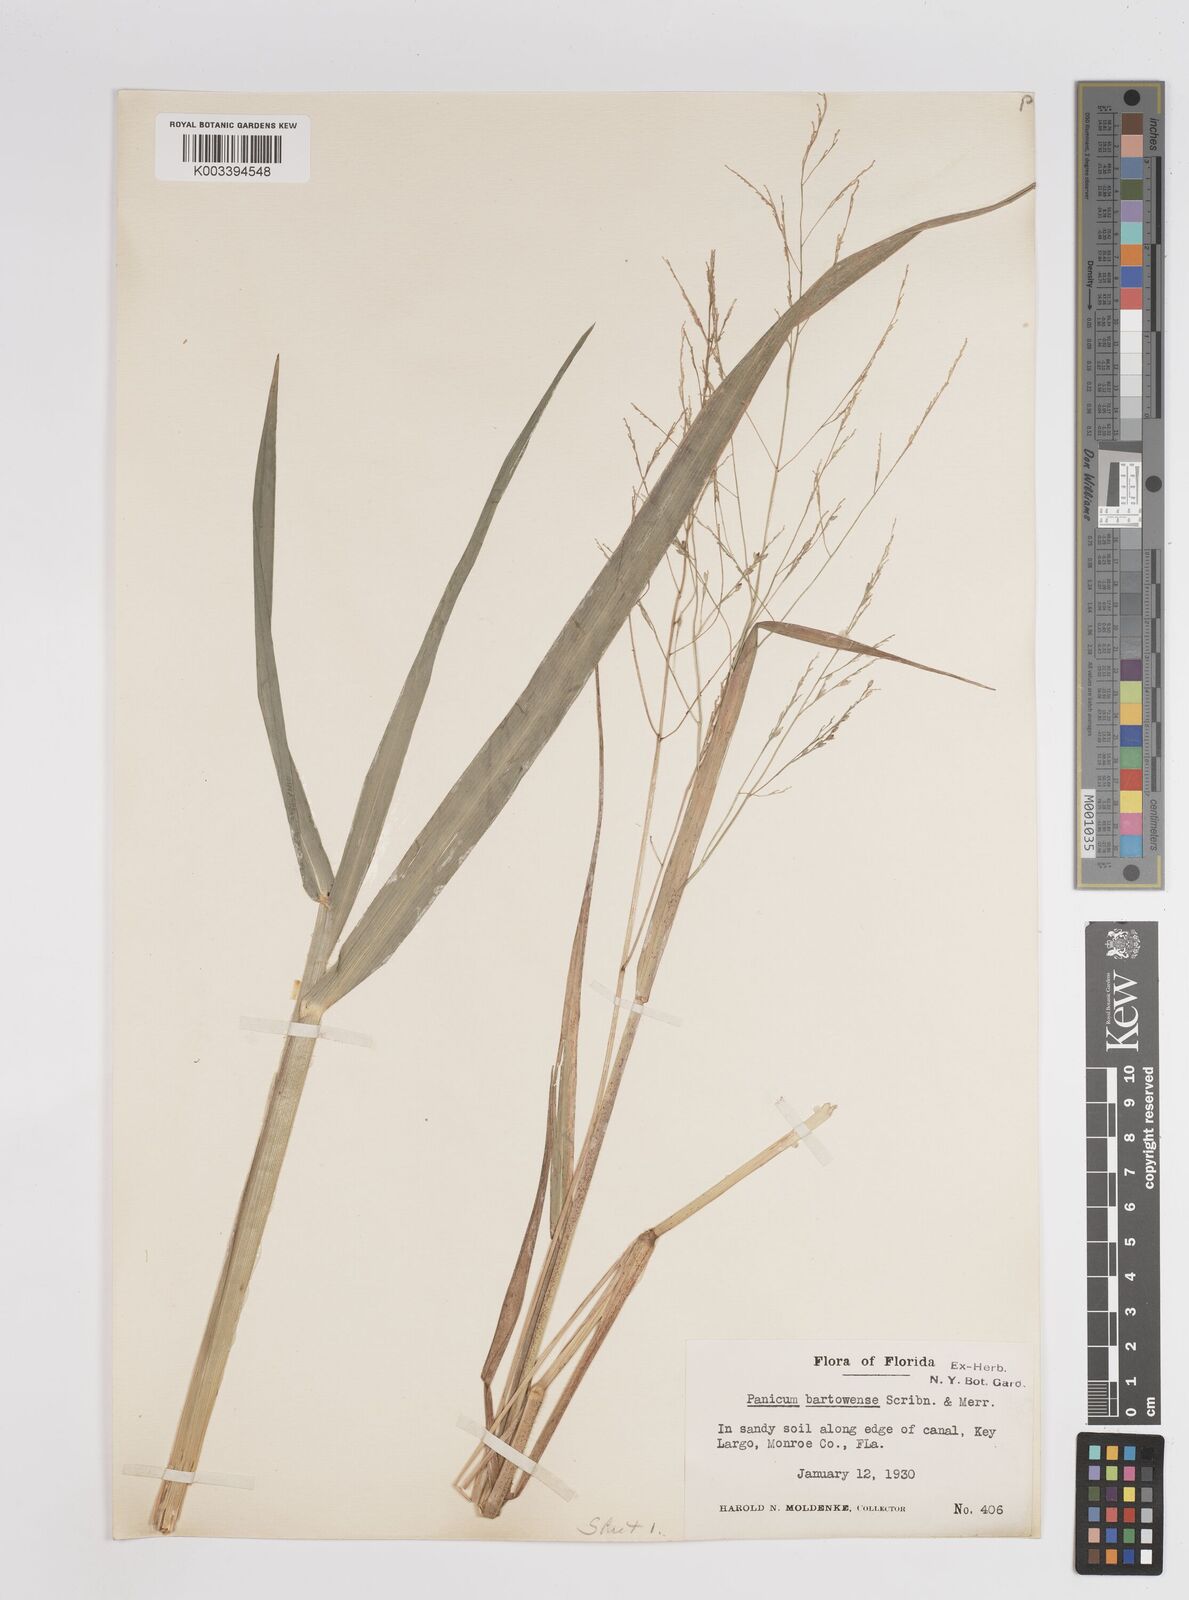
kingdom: Plantae
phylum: Tracheophyta
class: Liliopsida
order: Poales
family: Poaceae
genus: Panicum
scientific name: Panicum bartowense
